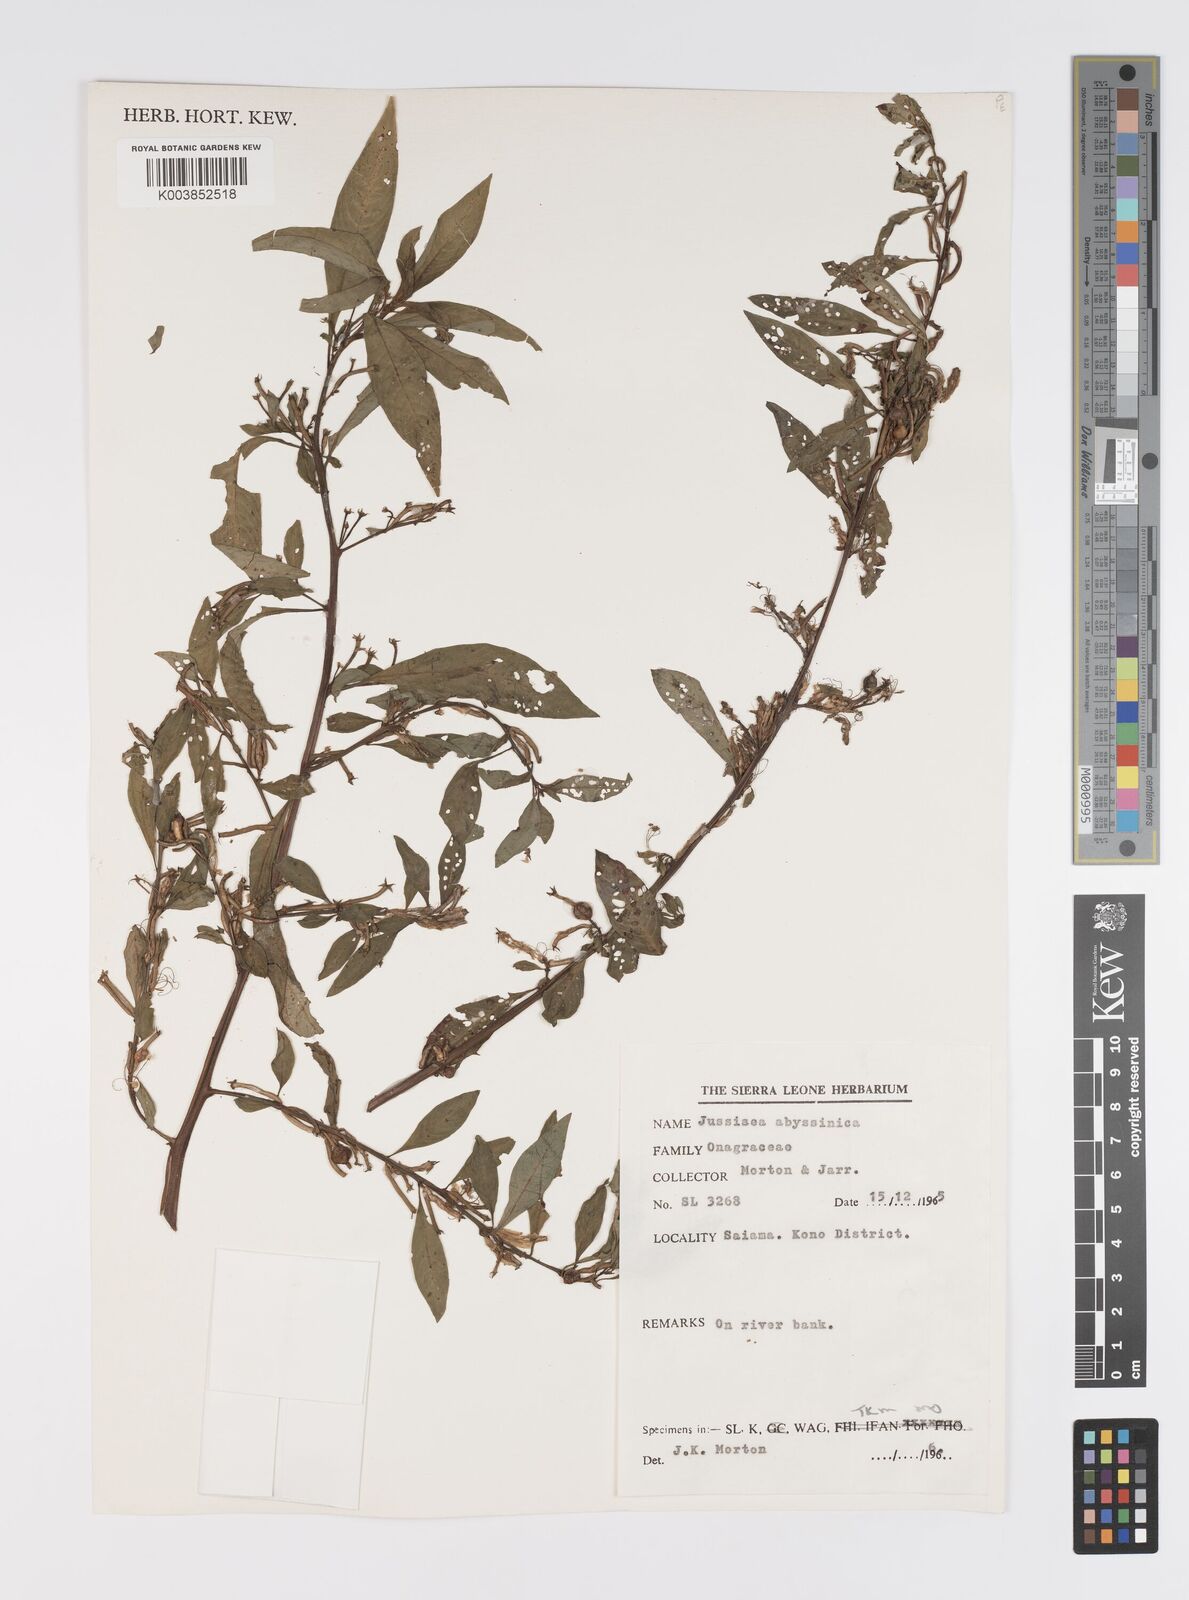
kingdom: Plantae
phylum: Tracheophyta
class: Magnoliopsida
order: Myrtales
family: Onagraceae
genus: Ludwigia
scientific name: Ludwigia abyssinica
